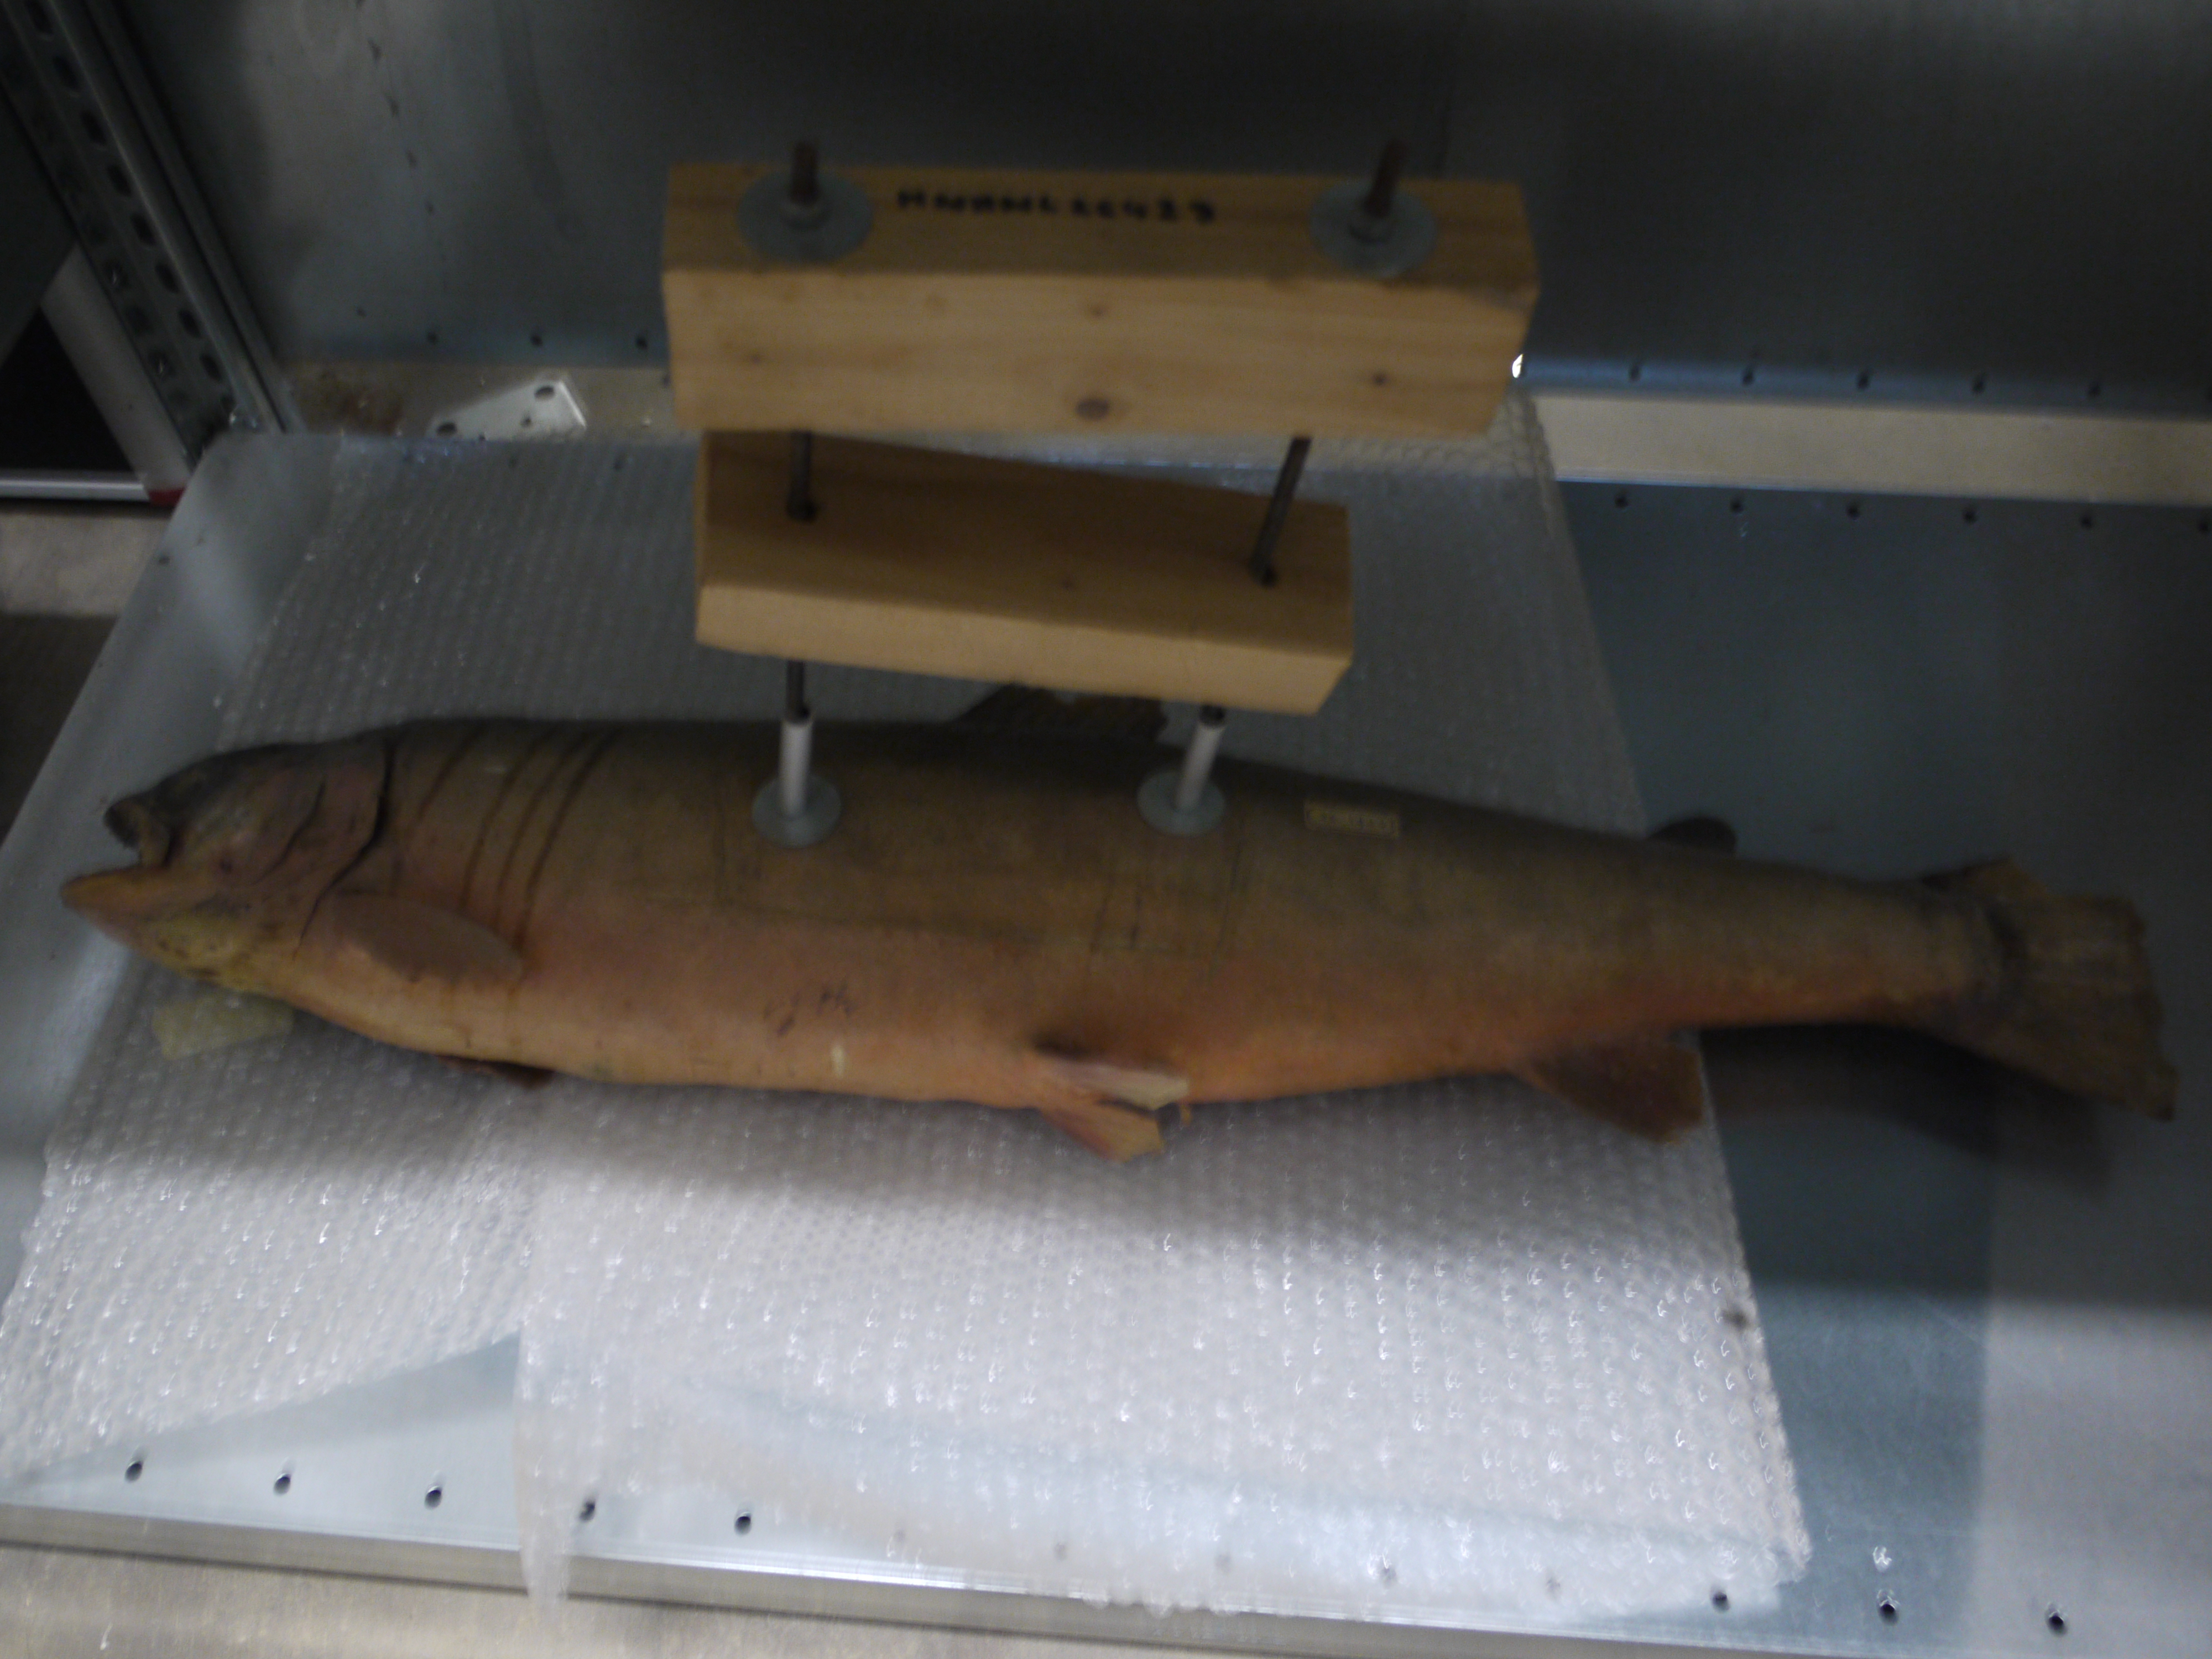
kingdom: Animalia
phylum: Chordata
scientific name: Chordata
